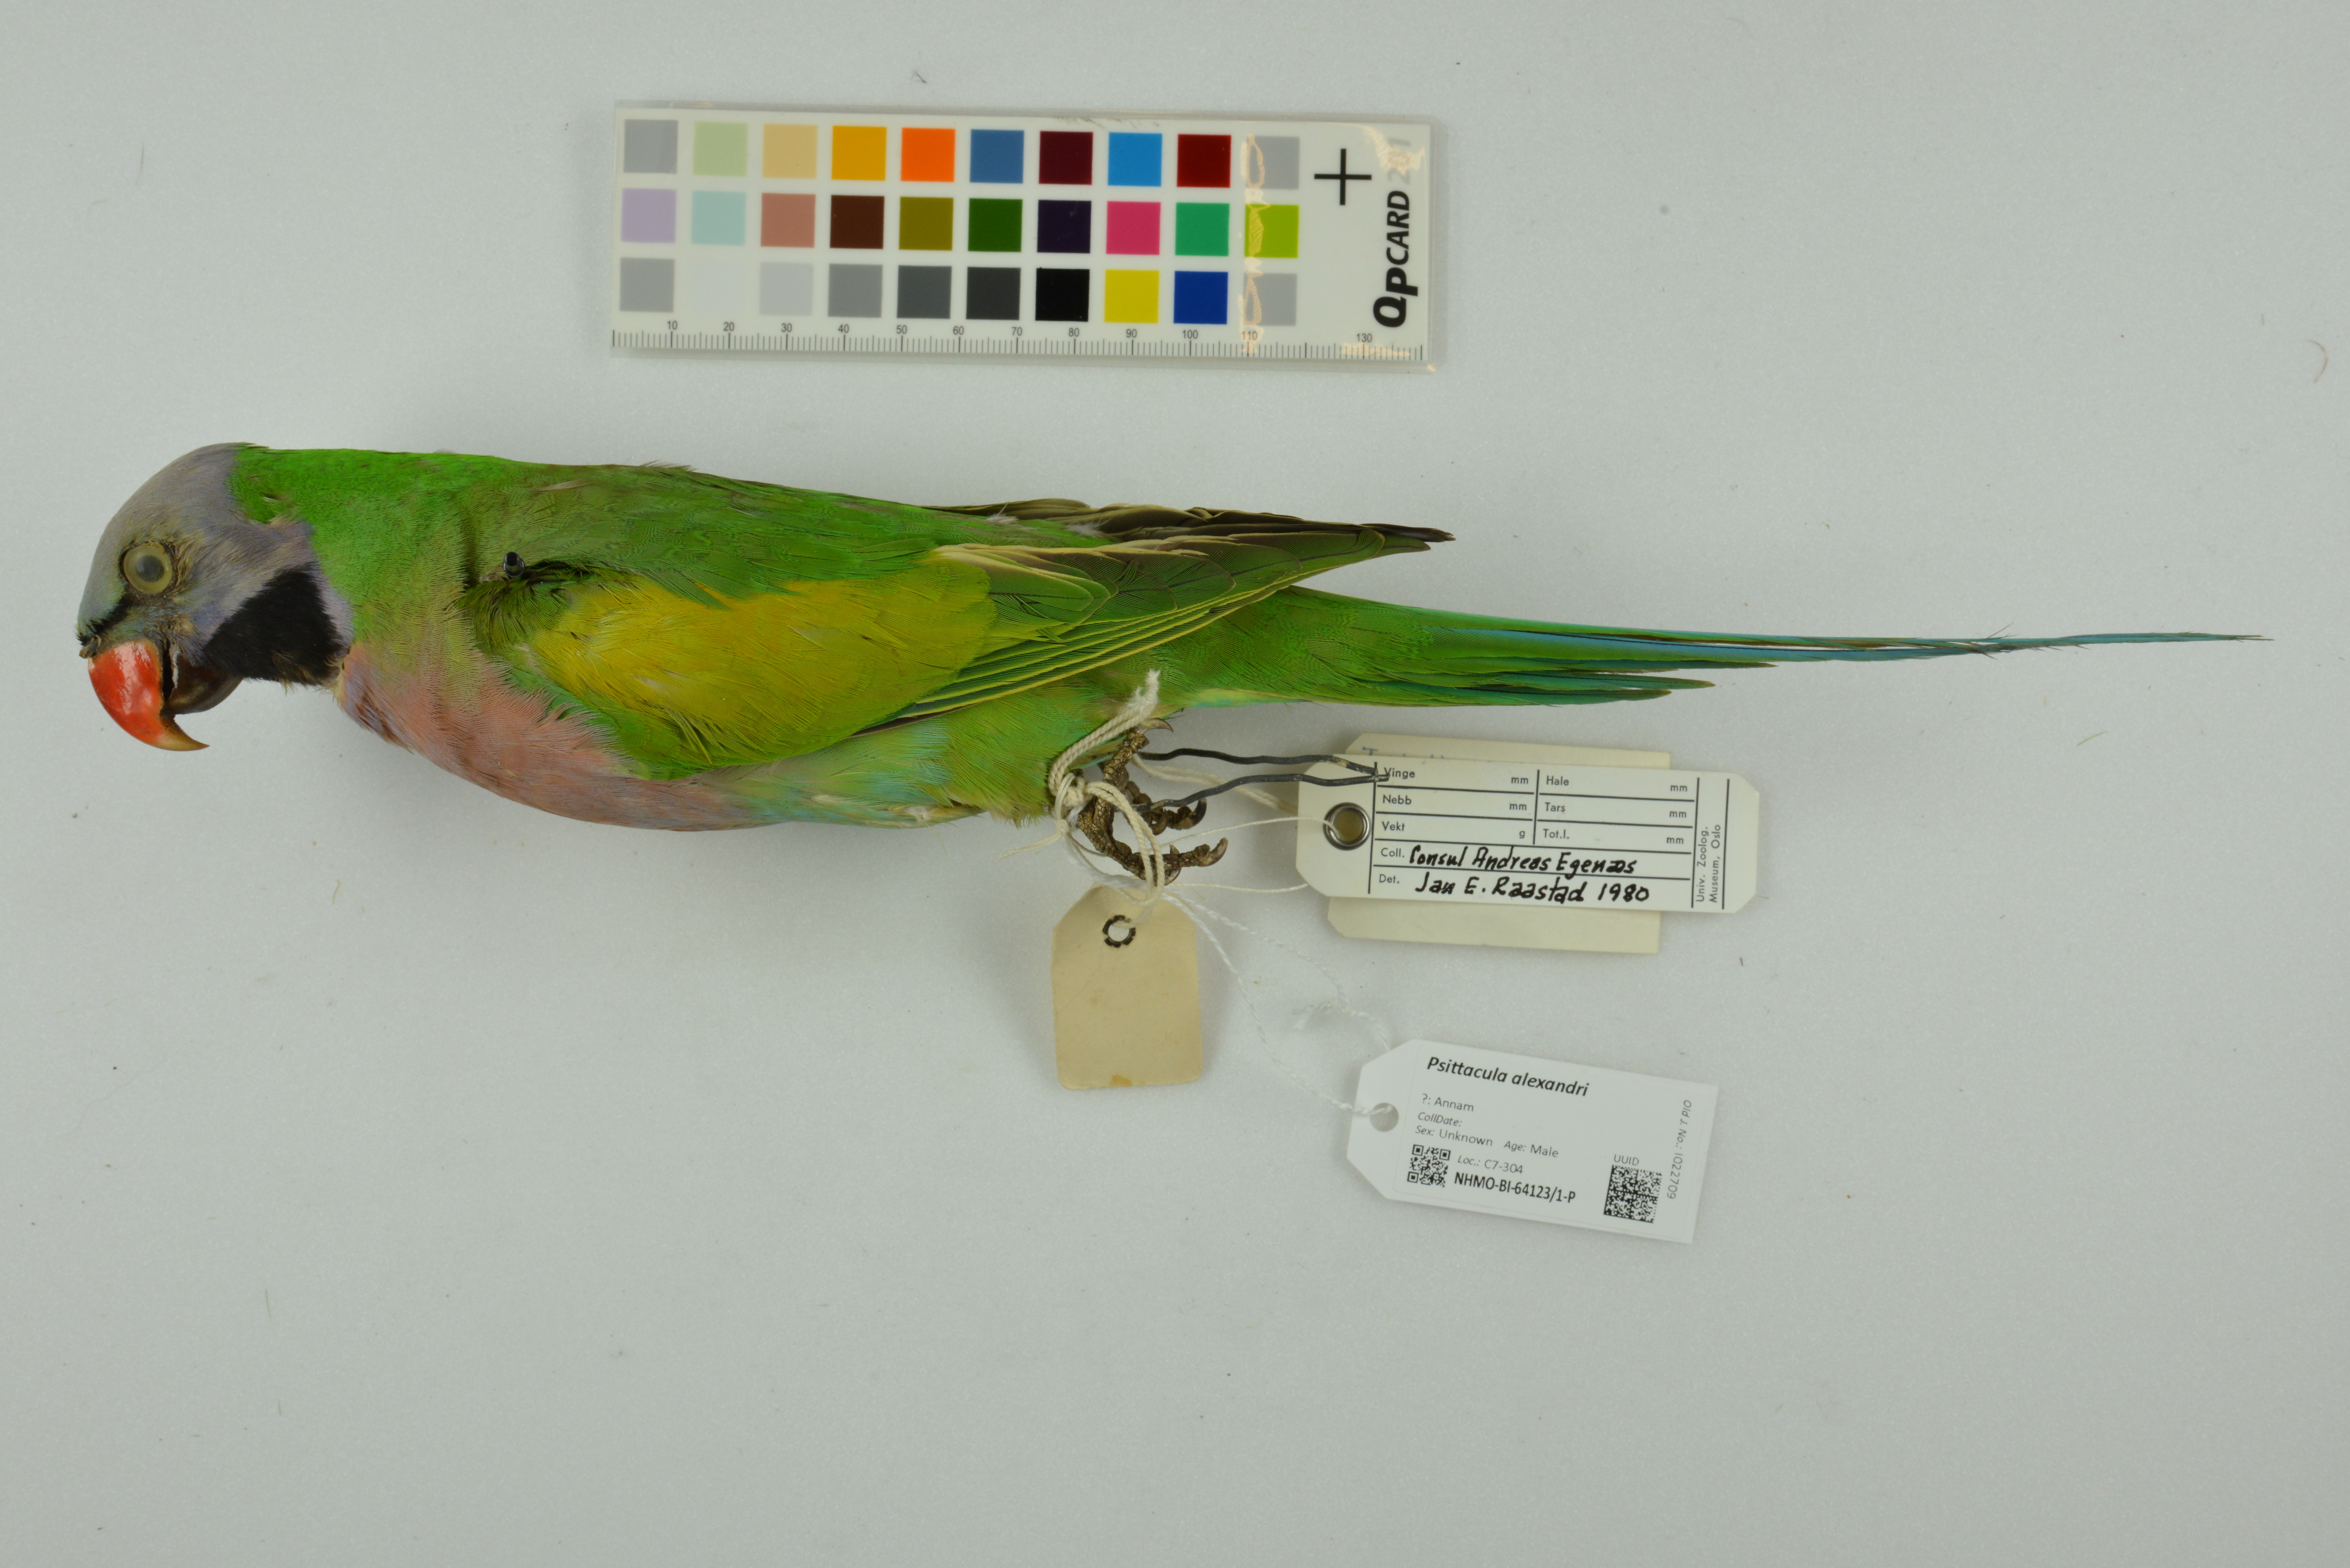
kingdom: Animalia
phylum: Chordata
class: Aves
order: Psittaciformes
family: Psittacidae
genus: Psittacula
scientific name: Psittacula alexandri
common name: Red-breasted parakeet
